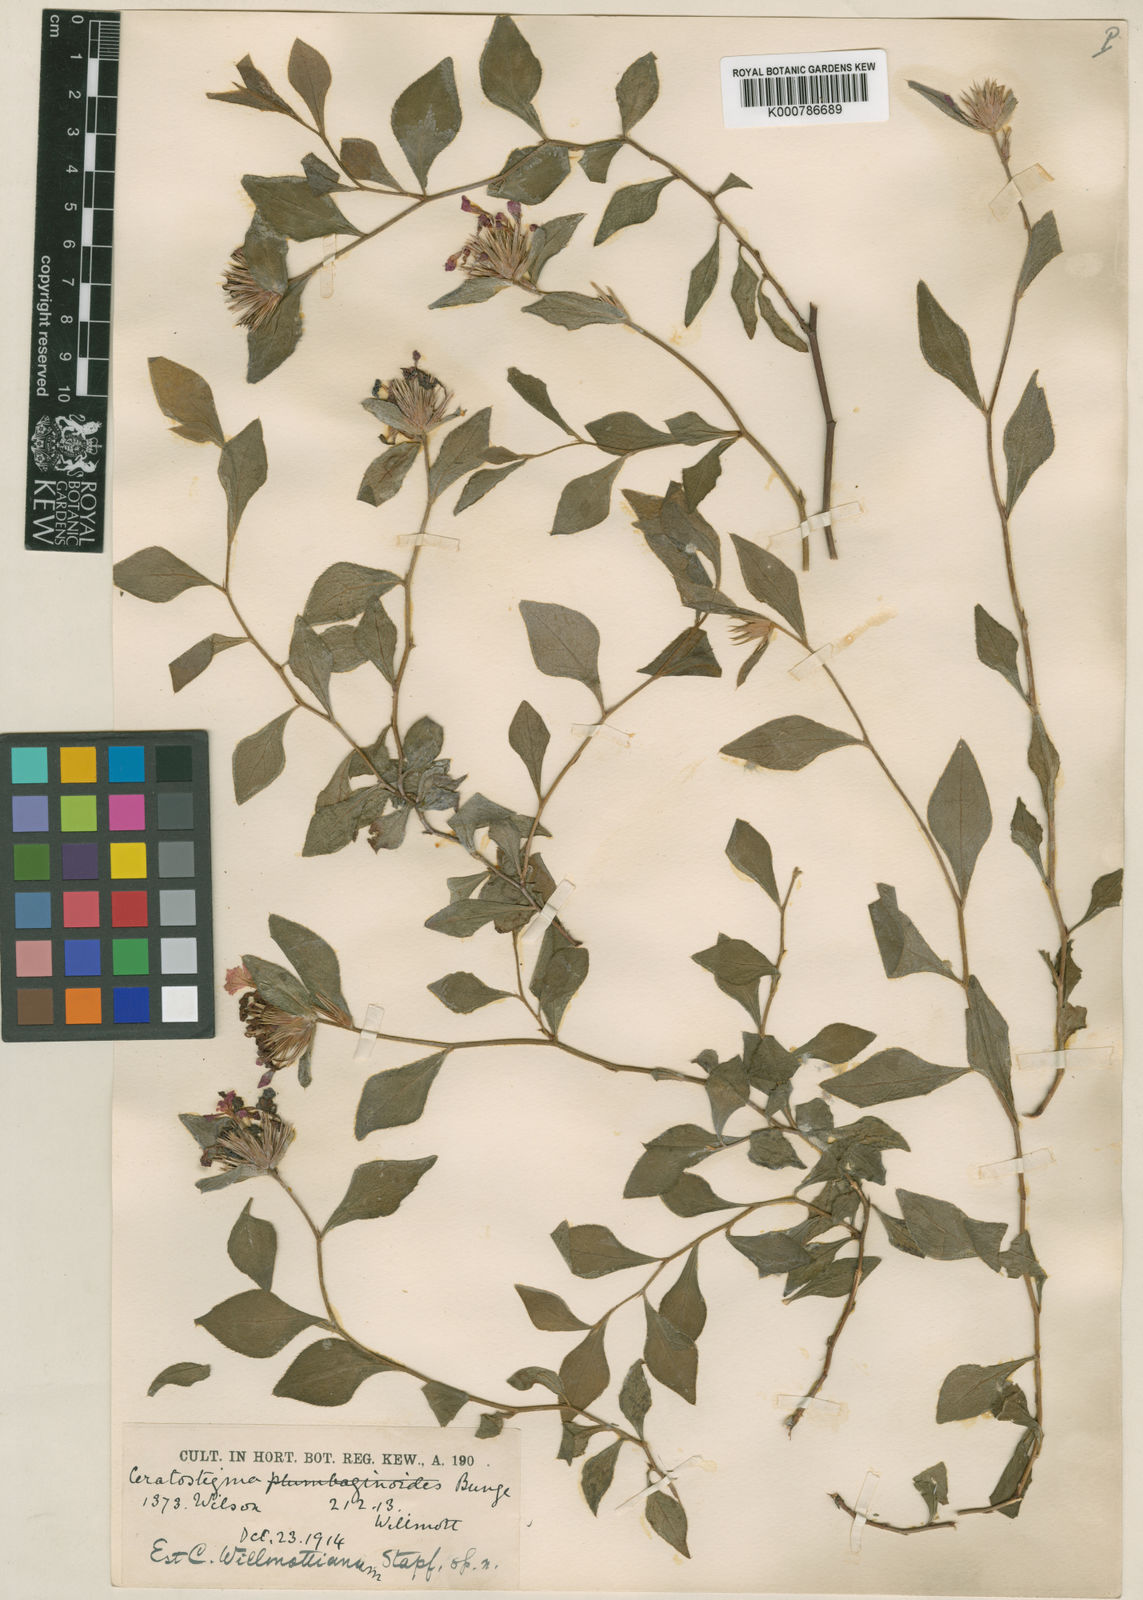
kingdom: Plantae
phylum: Tracheophyta
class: Magnoliopsida
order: Caryophyllales
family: Plumbaginaceae
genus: Ceratostigma
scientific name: Ceratostigma willmottianum
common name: Chinese-plumbago
